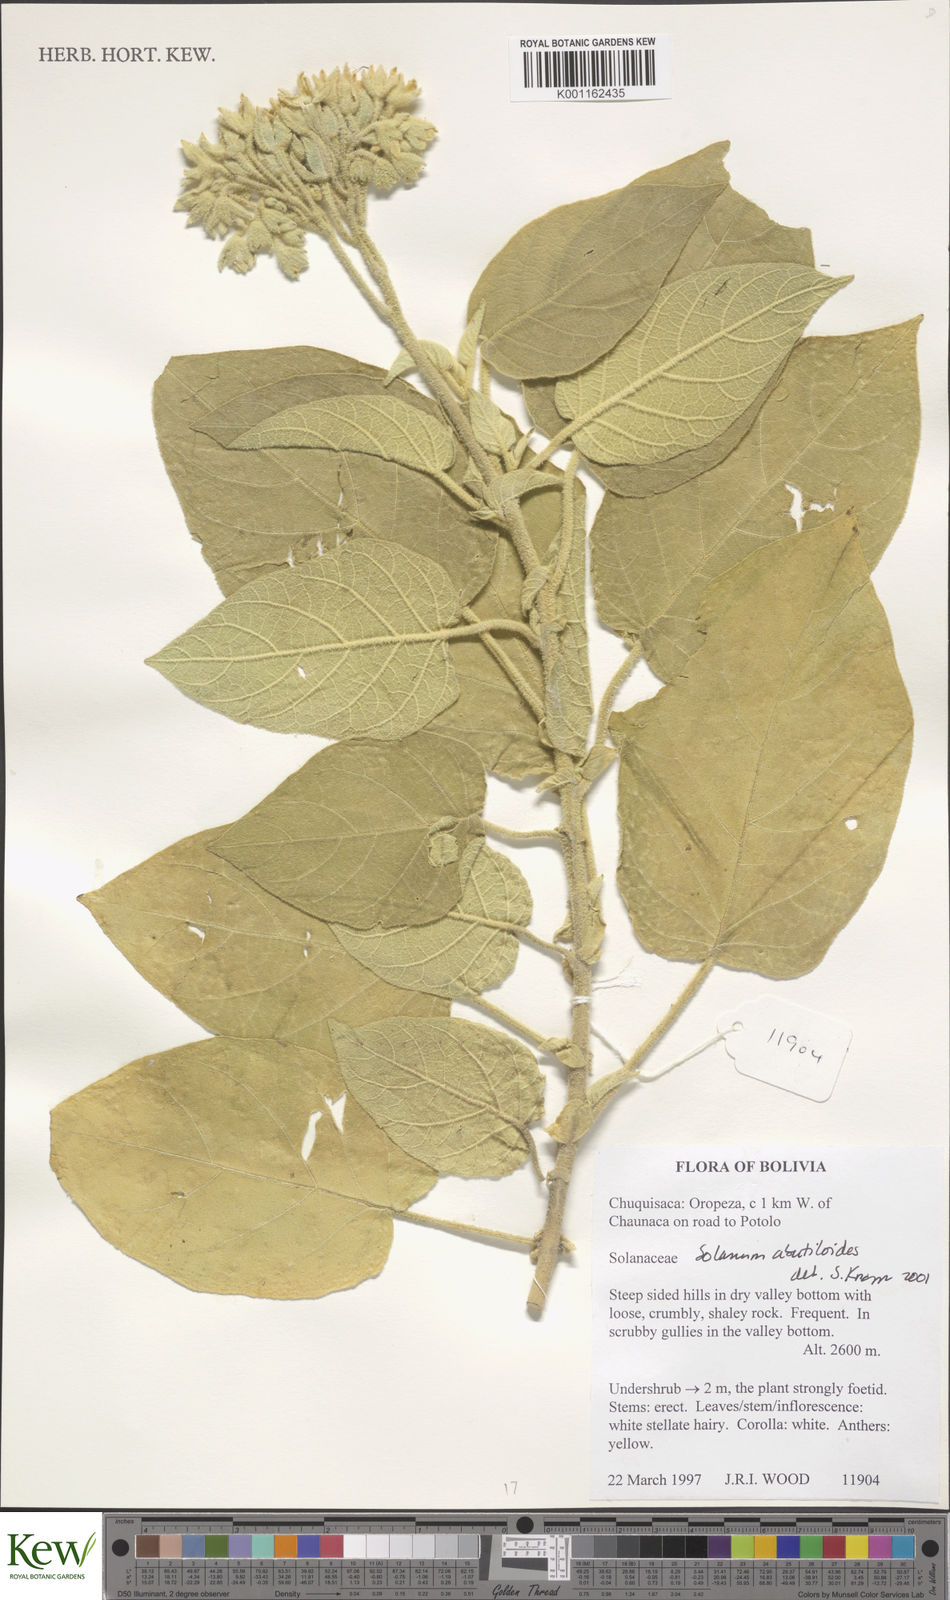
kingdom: Plantae
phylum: Tracheophyta
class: Magnoliopsida
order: Solanales
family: Solanaceae
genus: Solanum
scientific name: Solanum abutiloides
